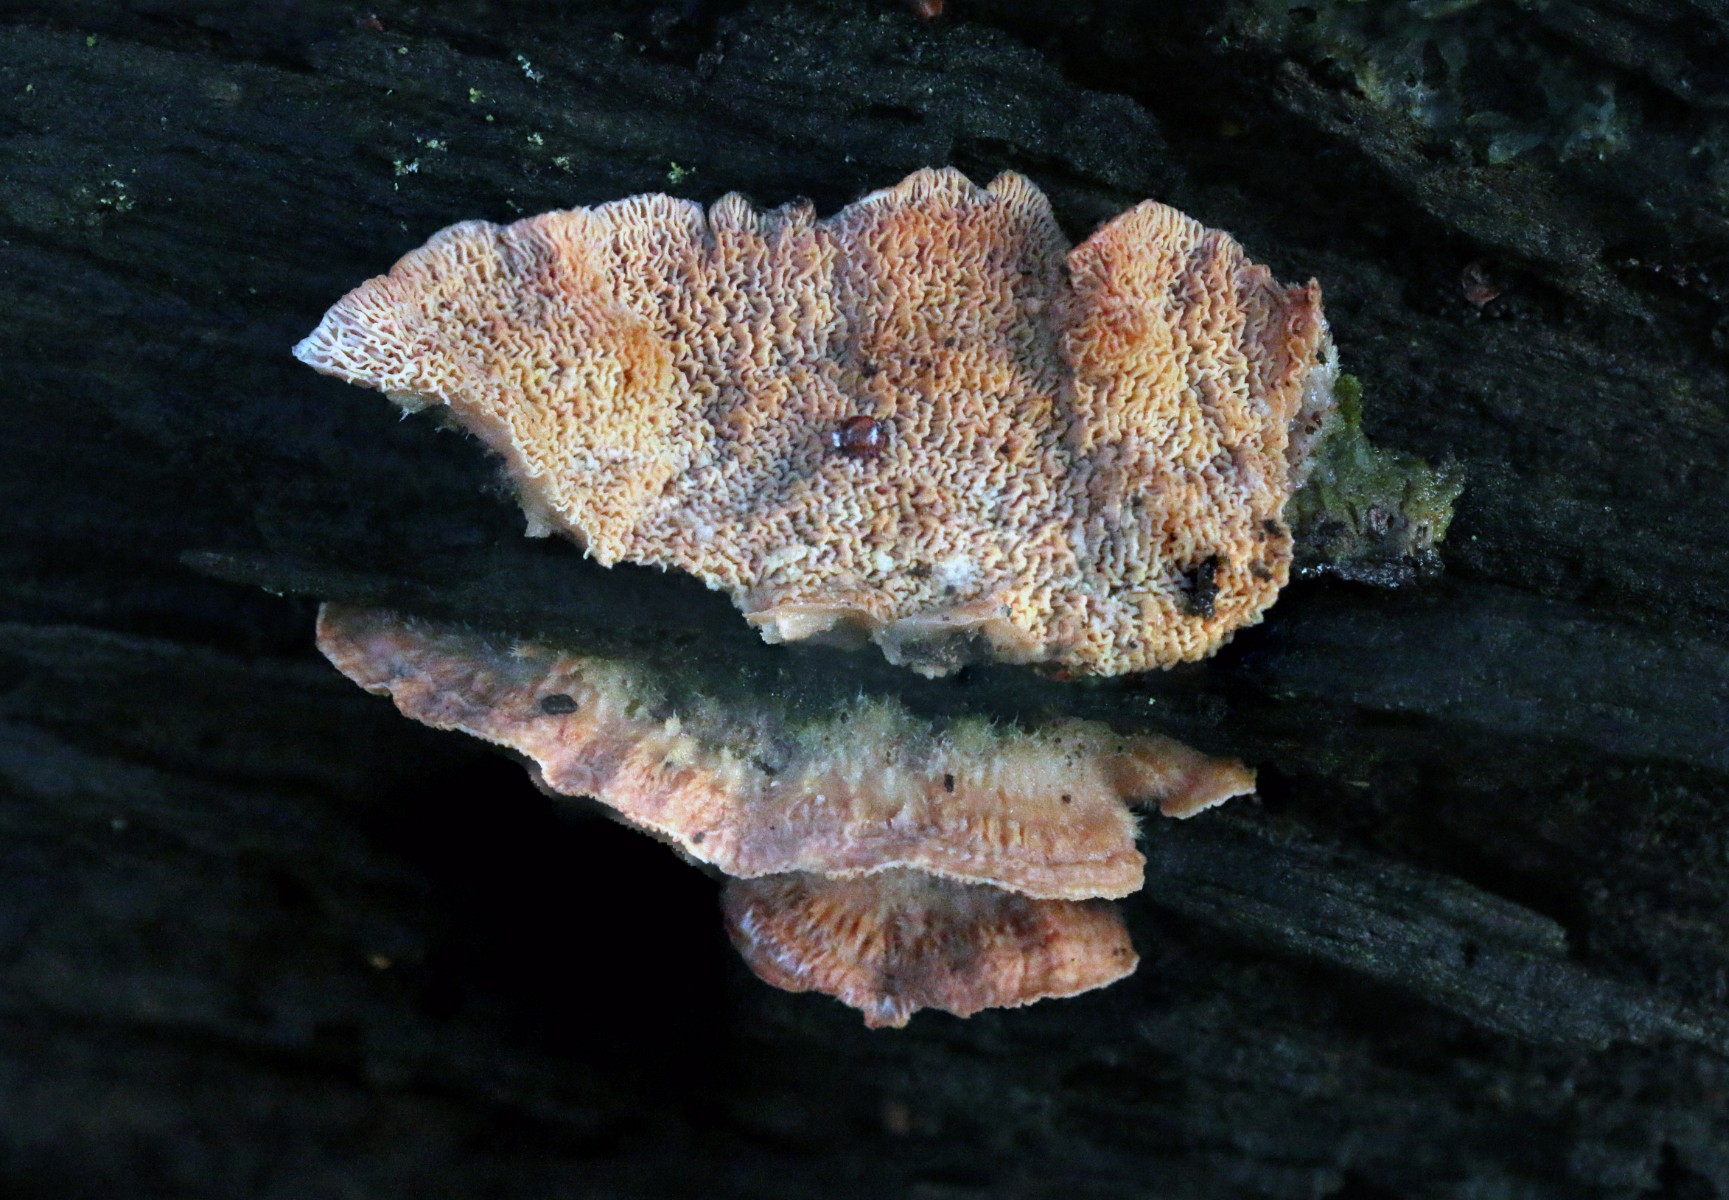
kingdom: Fungi
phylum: Basidiomycota
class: Agaricomycetes
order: Polyporales
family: Meruliaceae
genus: Phlebia
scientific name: Phlebia tremellosa
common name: bævrende åresvamp
